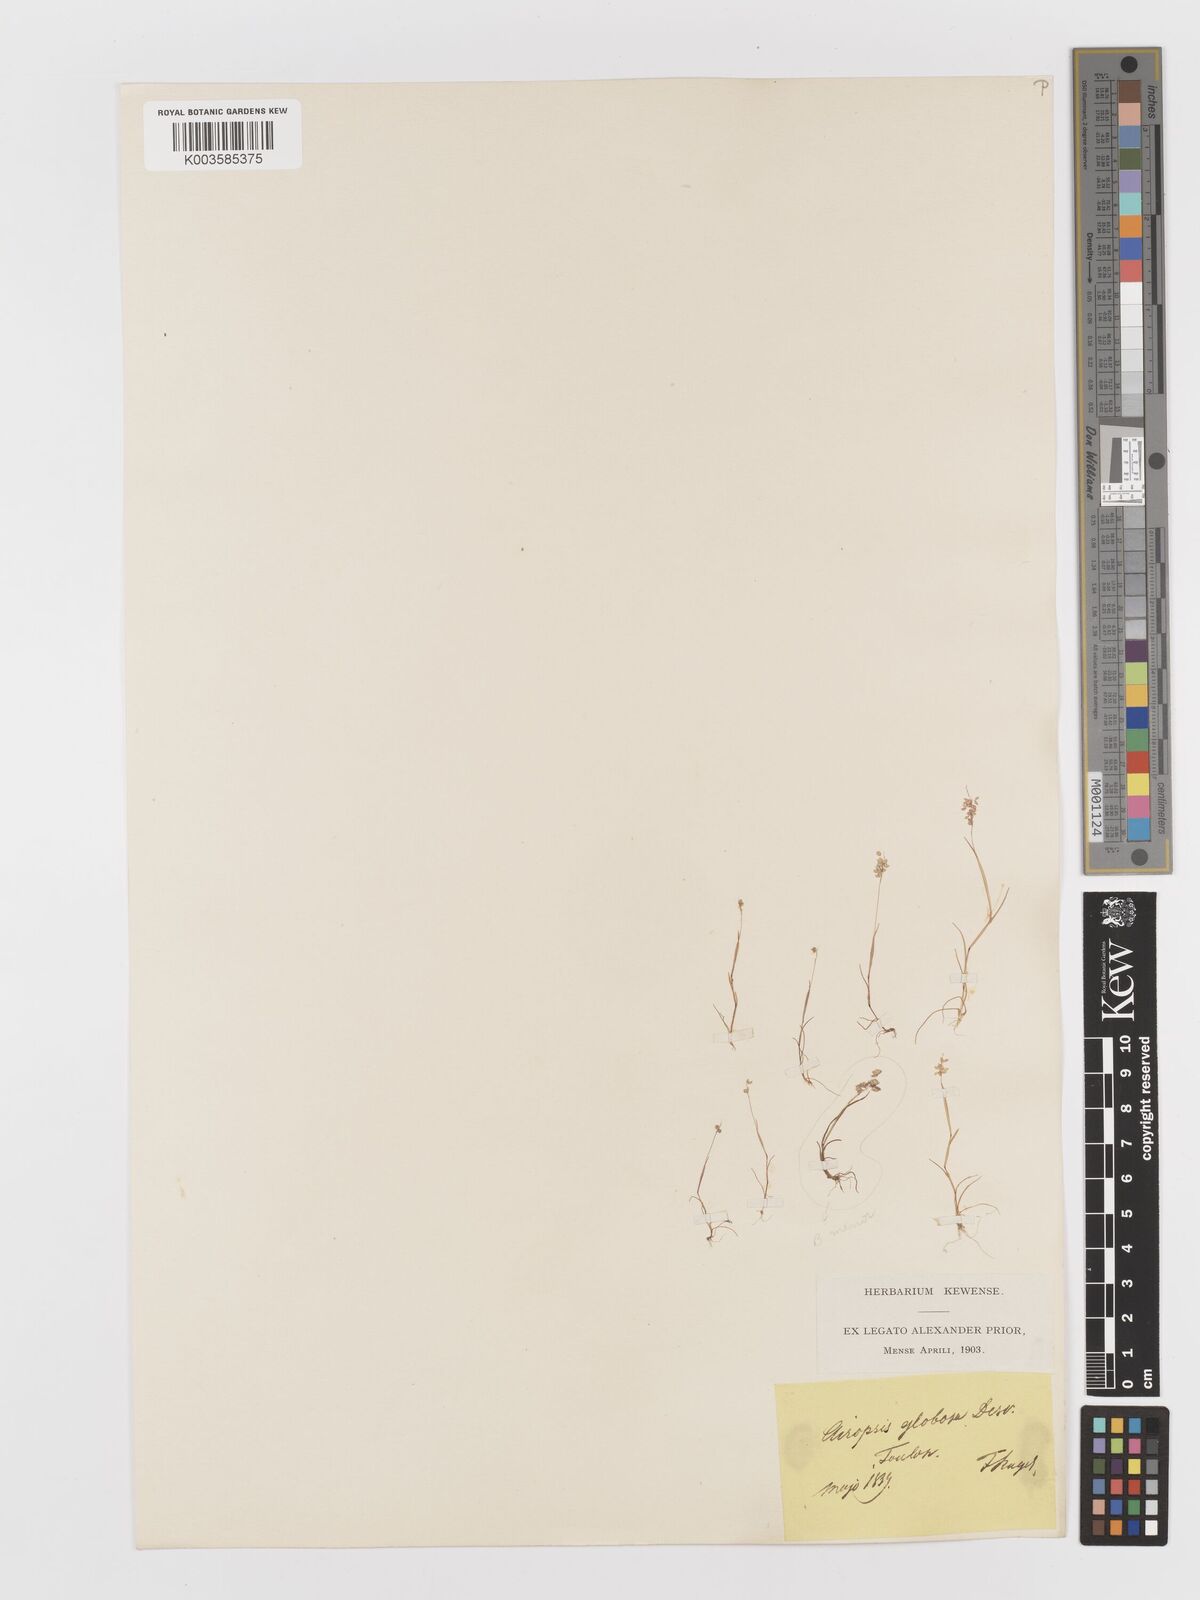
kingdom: Plantae
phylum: Tracheophyta
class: Liliopsida
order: Poales
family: Poaceae
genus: Airopsis
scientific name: Airopsis tenella
